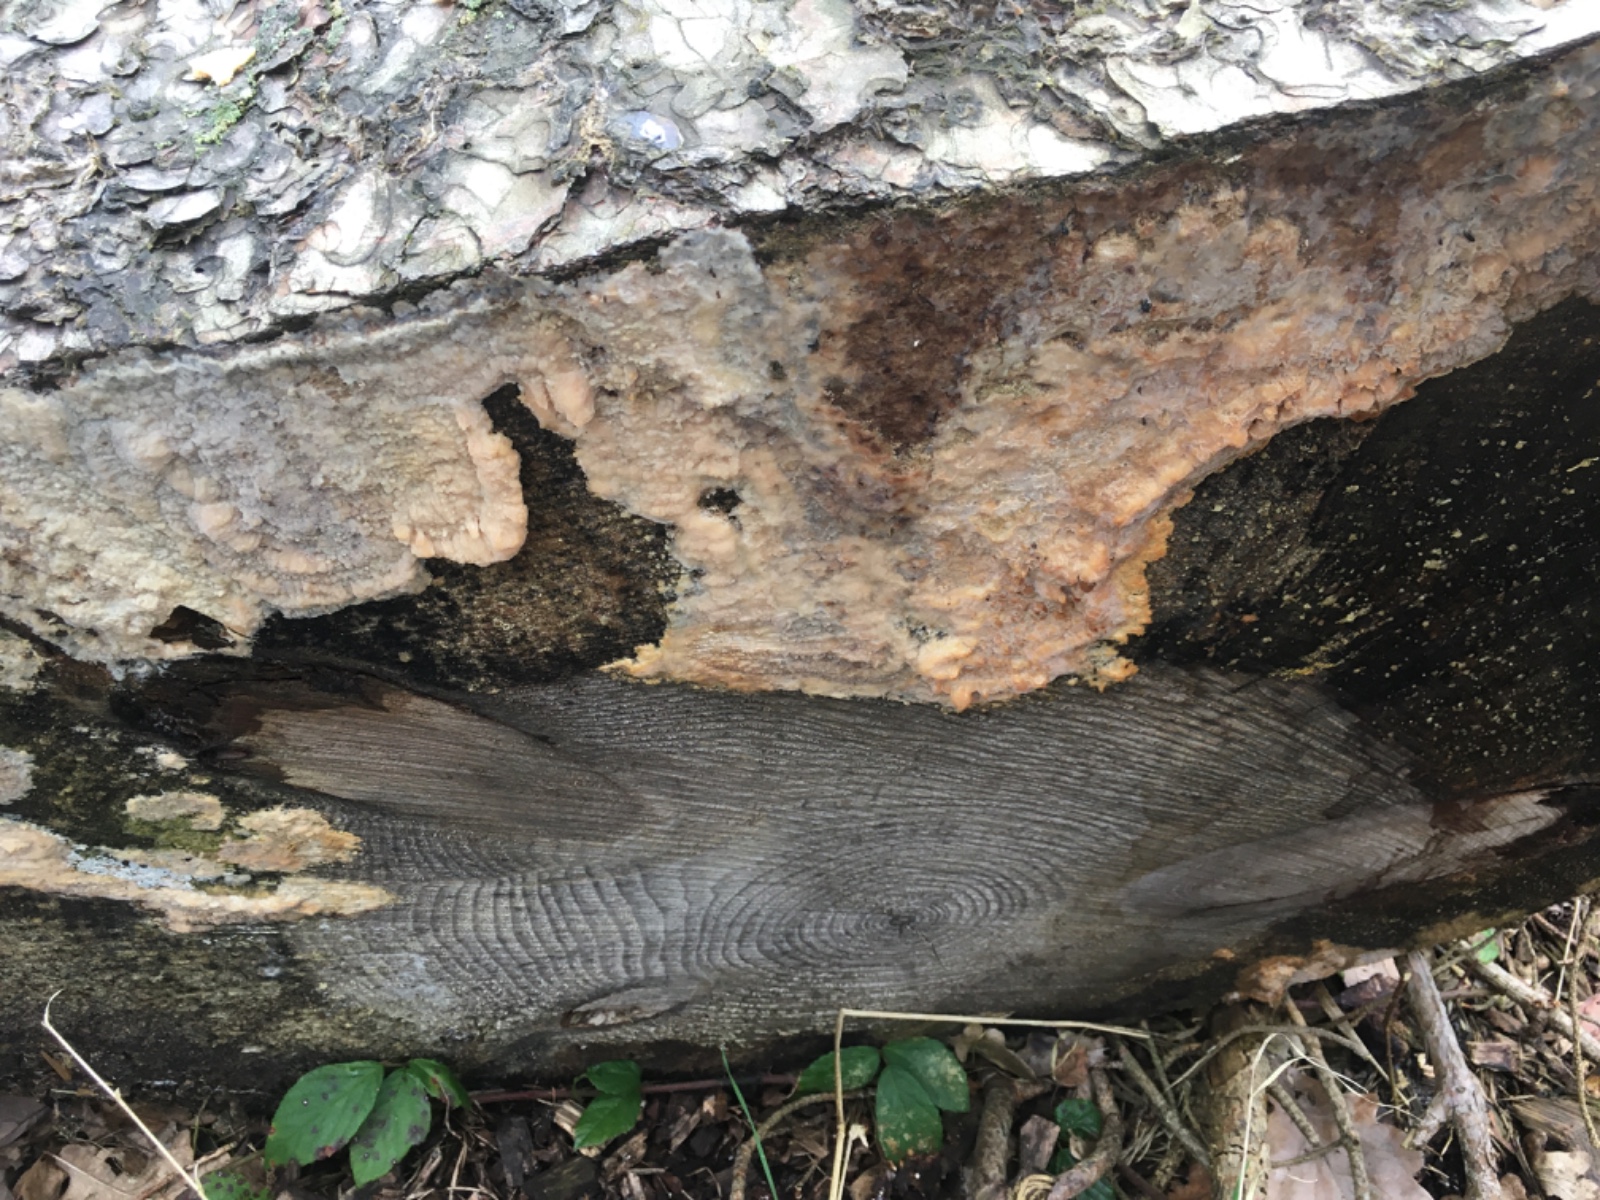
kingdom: Fungi
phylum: Basidiomycota
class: Agaricomycetes
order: Polyporales
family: Phanerochaetaceae
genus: Phlebiopsis
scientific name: Phlebiopsis gigantea
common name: kæmpebarksvamp
